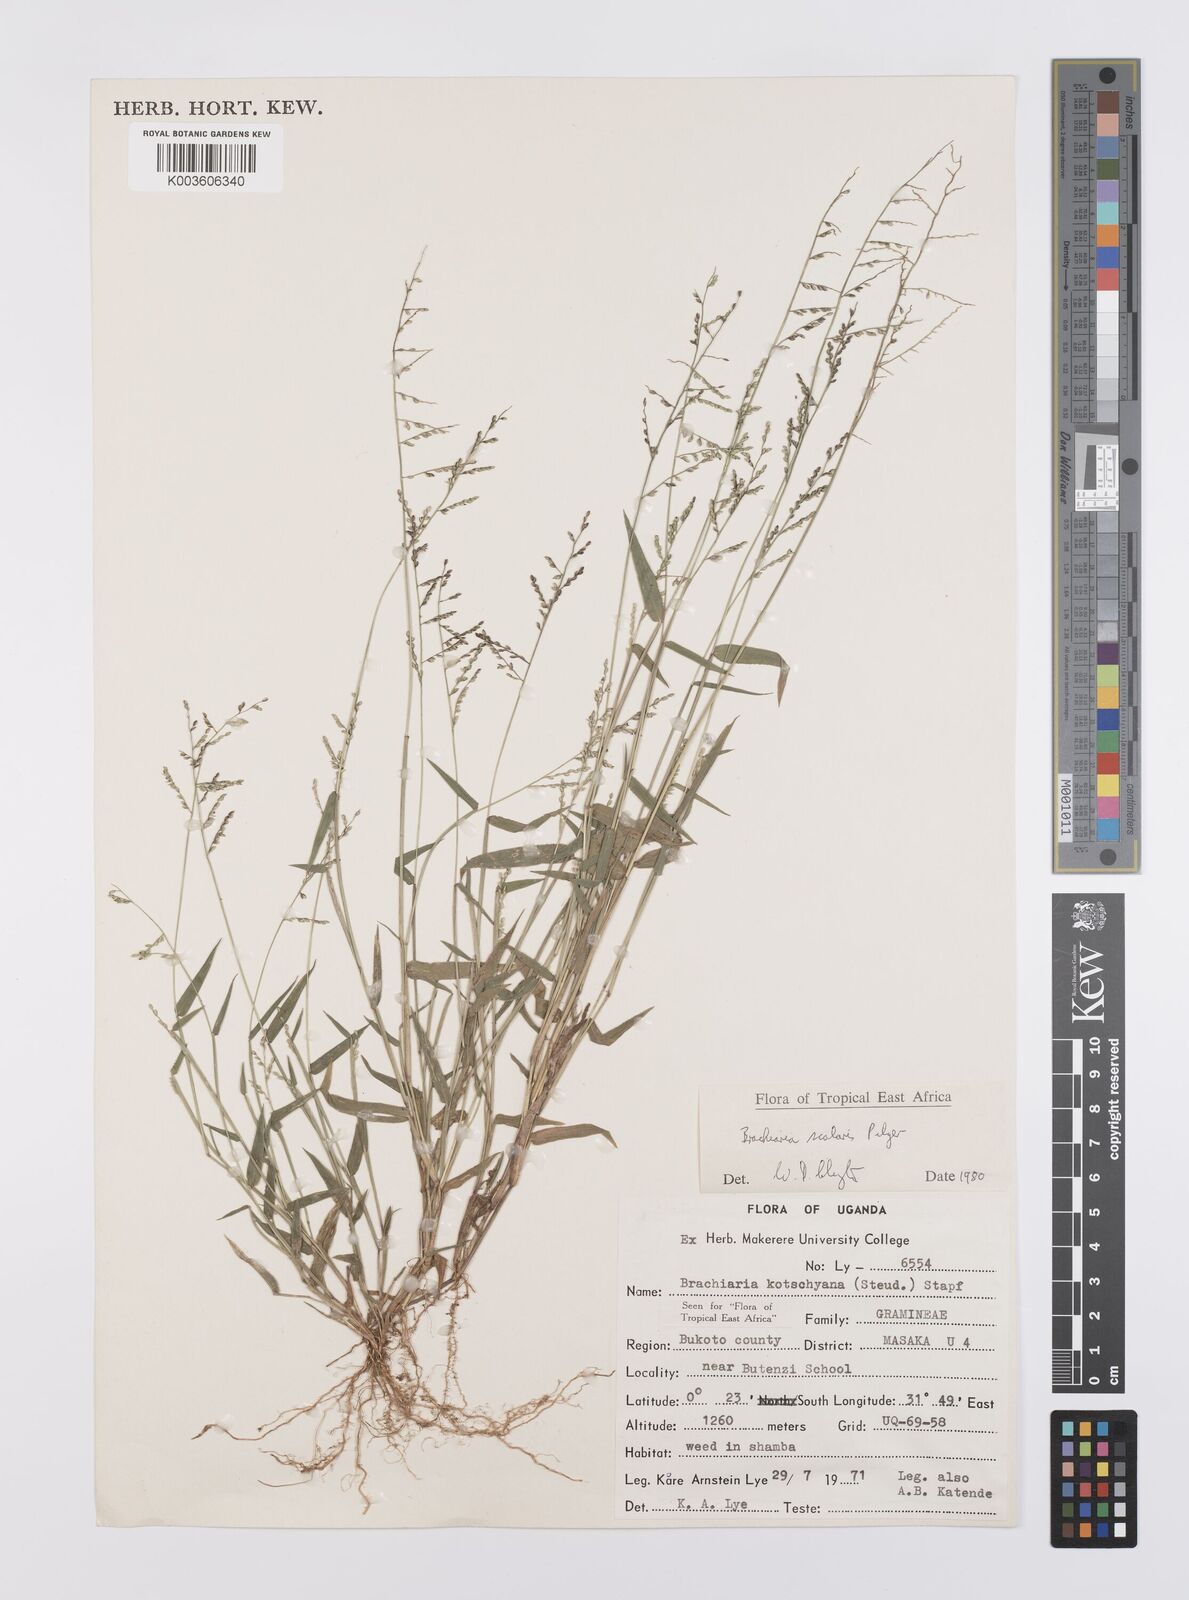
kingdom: Plantae
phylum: Tracheophyta
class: Liliopsida
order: Poales
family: Poaceae
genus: Urochloa
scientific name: Urochloa comata
